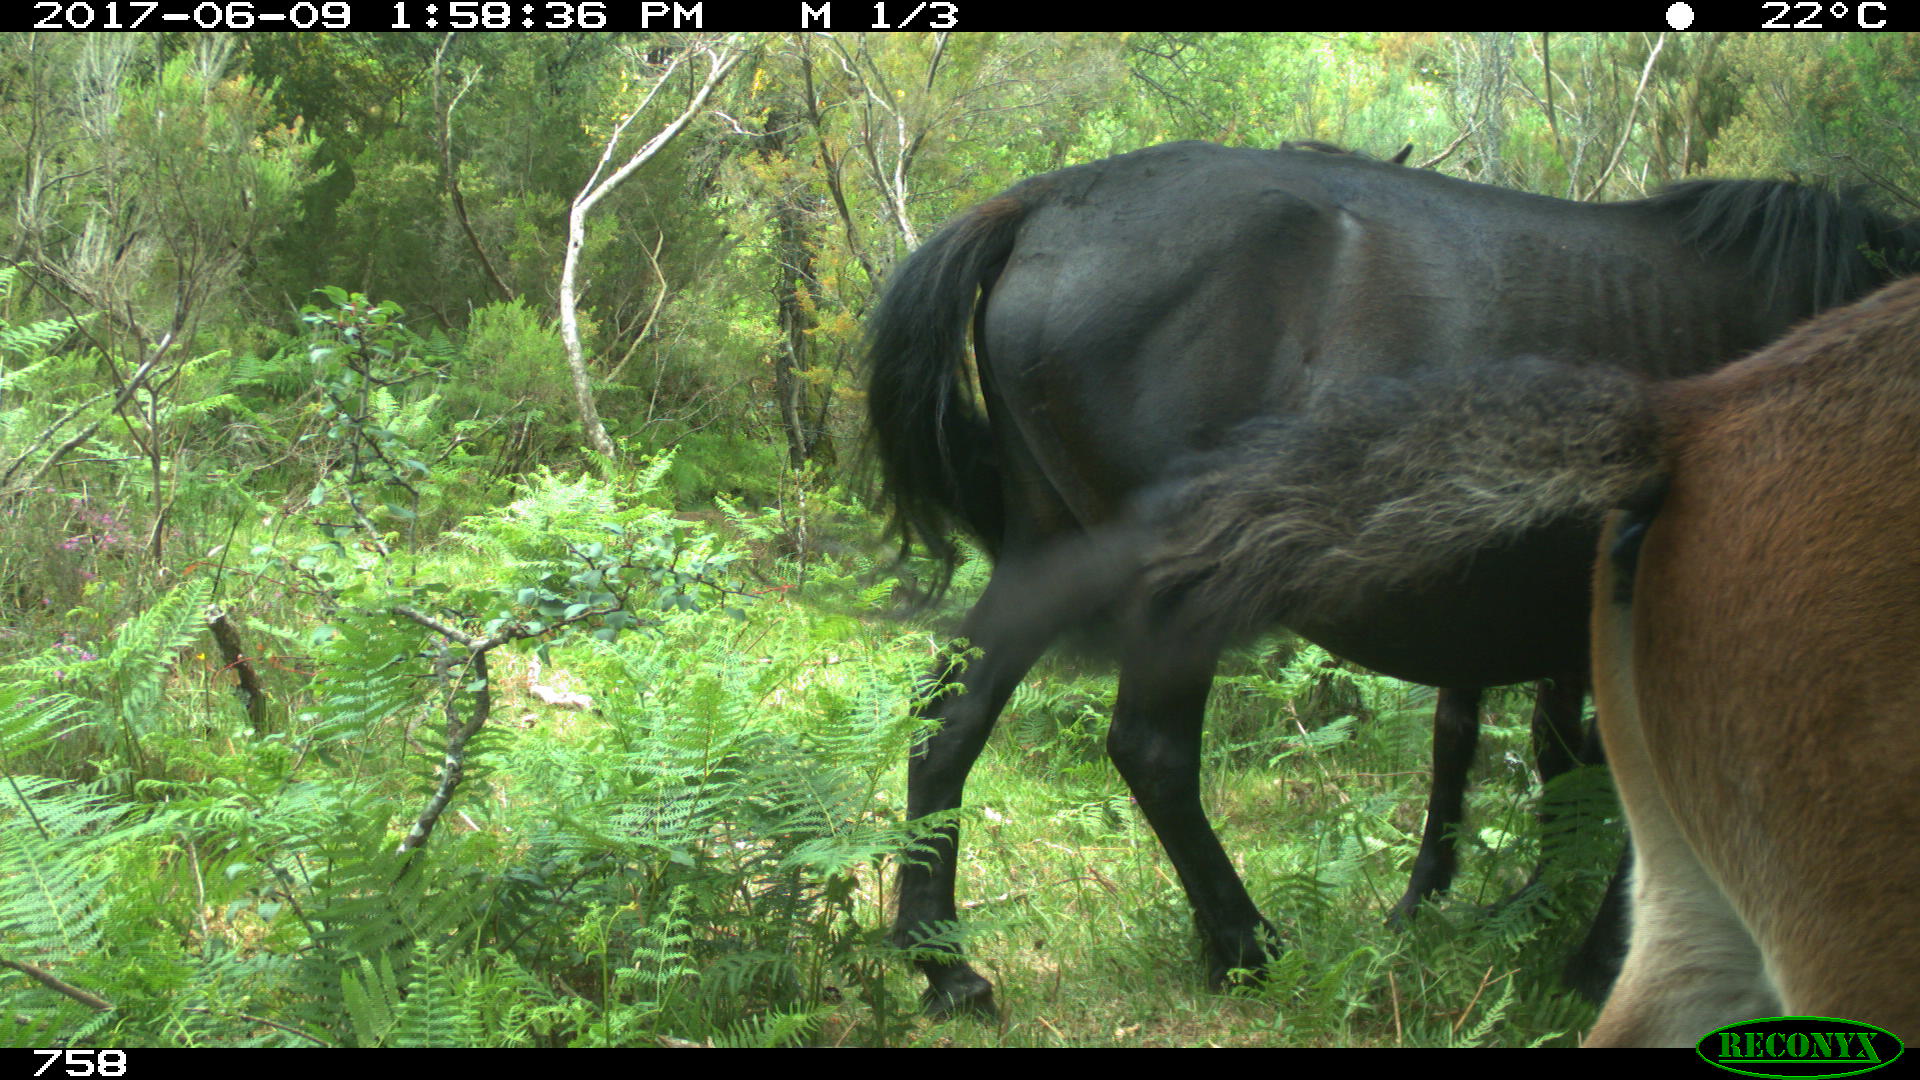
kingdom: Animalia
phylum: Chordata
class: Mammalia
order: Perissodactyla
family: Equidae
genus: Equus
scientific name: Equus caballus
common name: Horse
